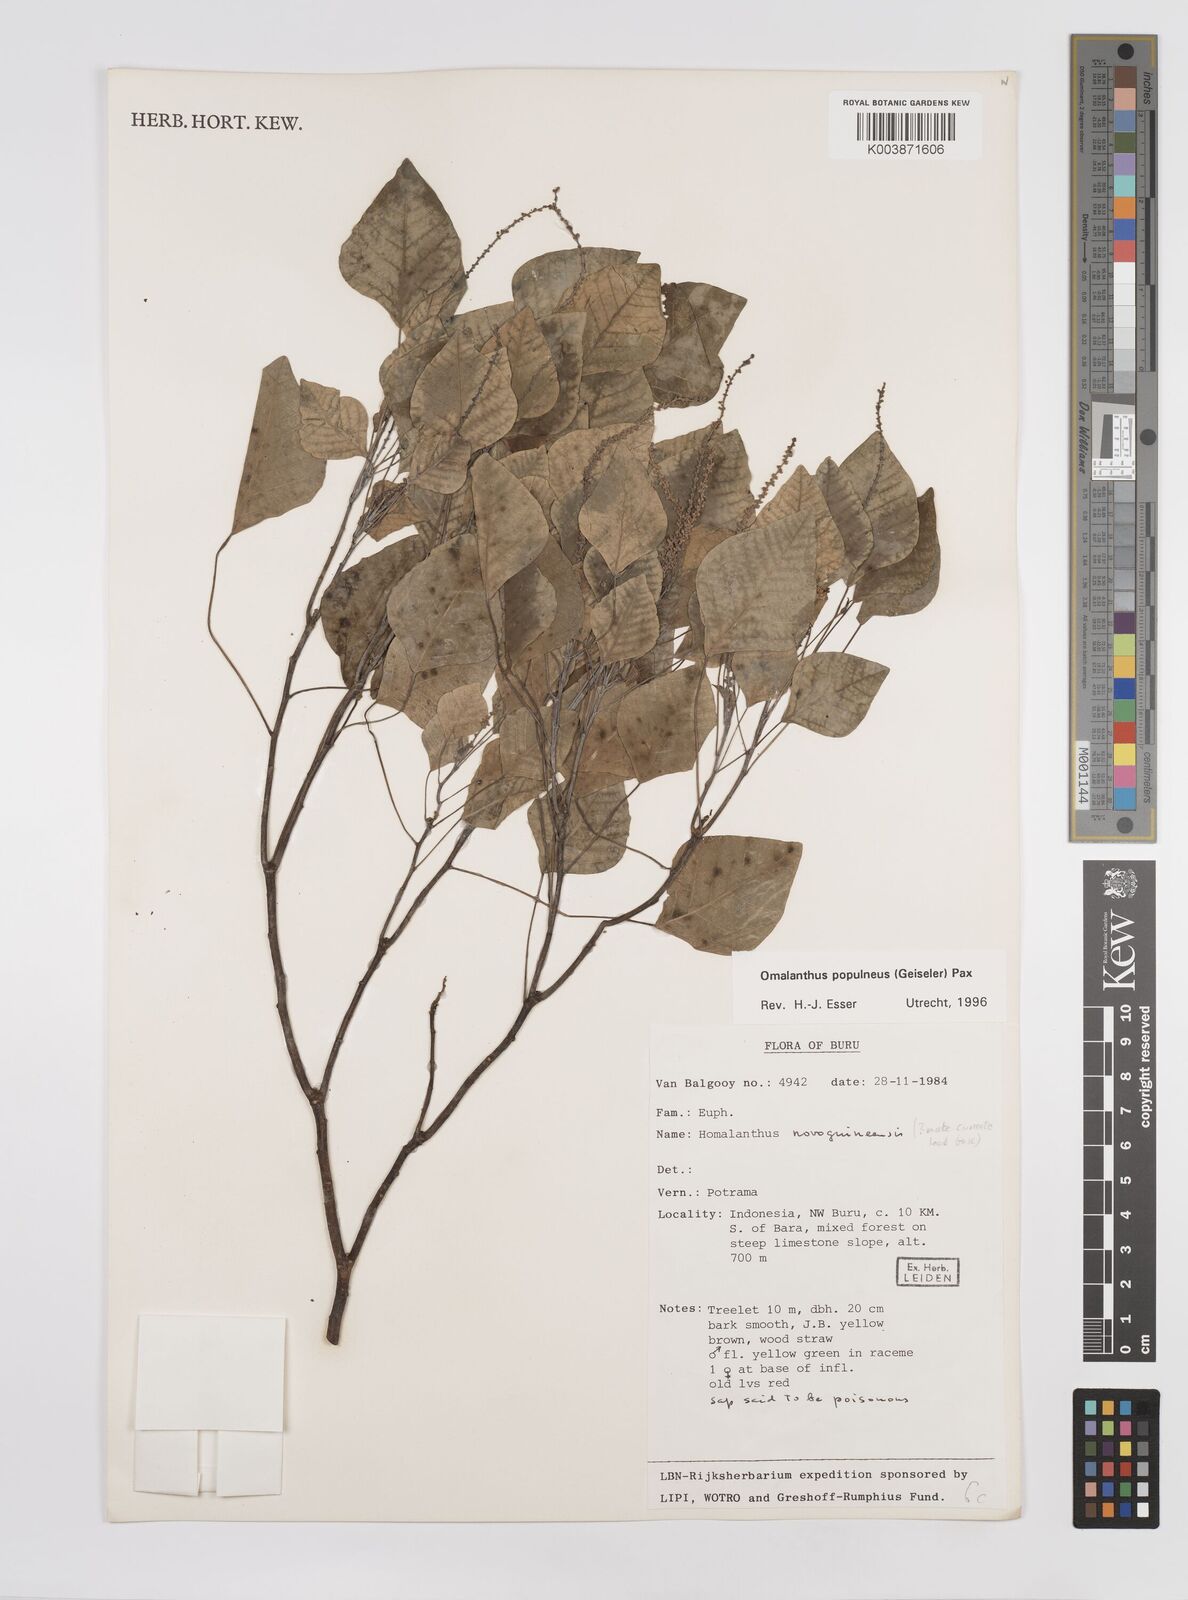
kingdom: Plantae
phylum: Tracheophyta
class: Magnoliopsida
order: Malpighiales
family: Euphorbiaceae
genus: Homalanthus
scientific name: Homalanthus novoguineensis
